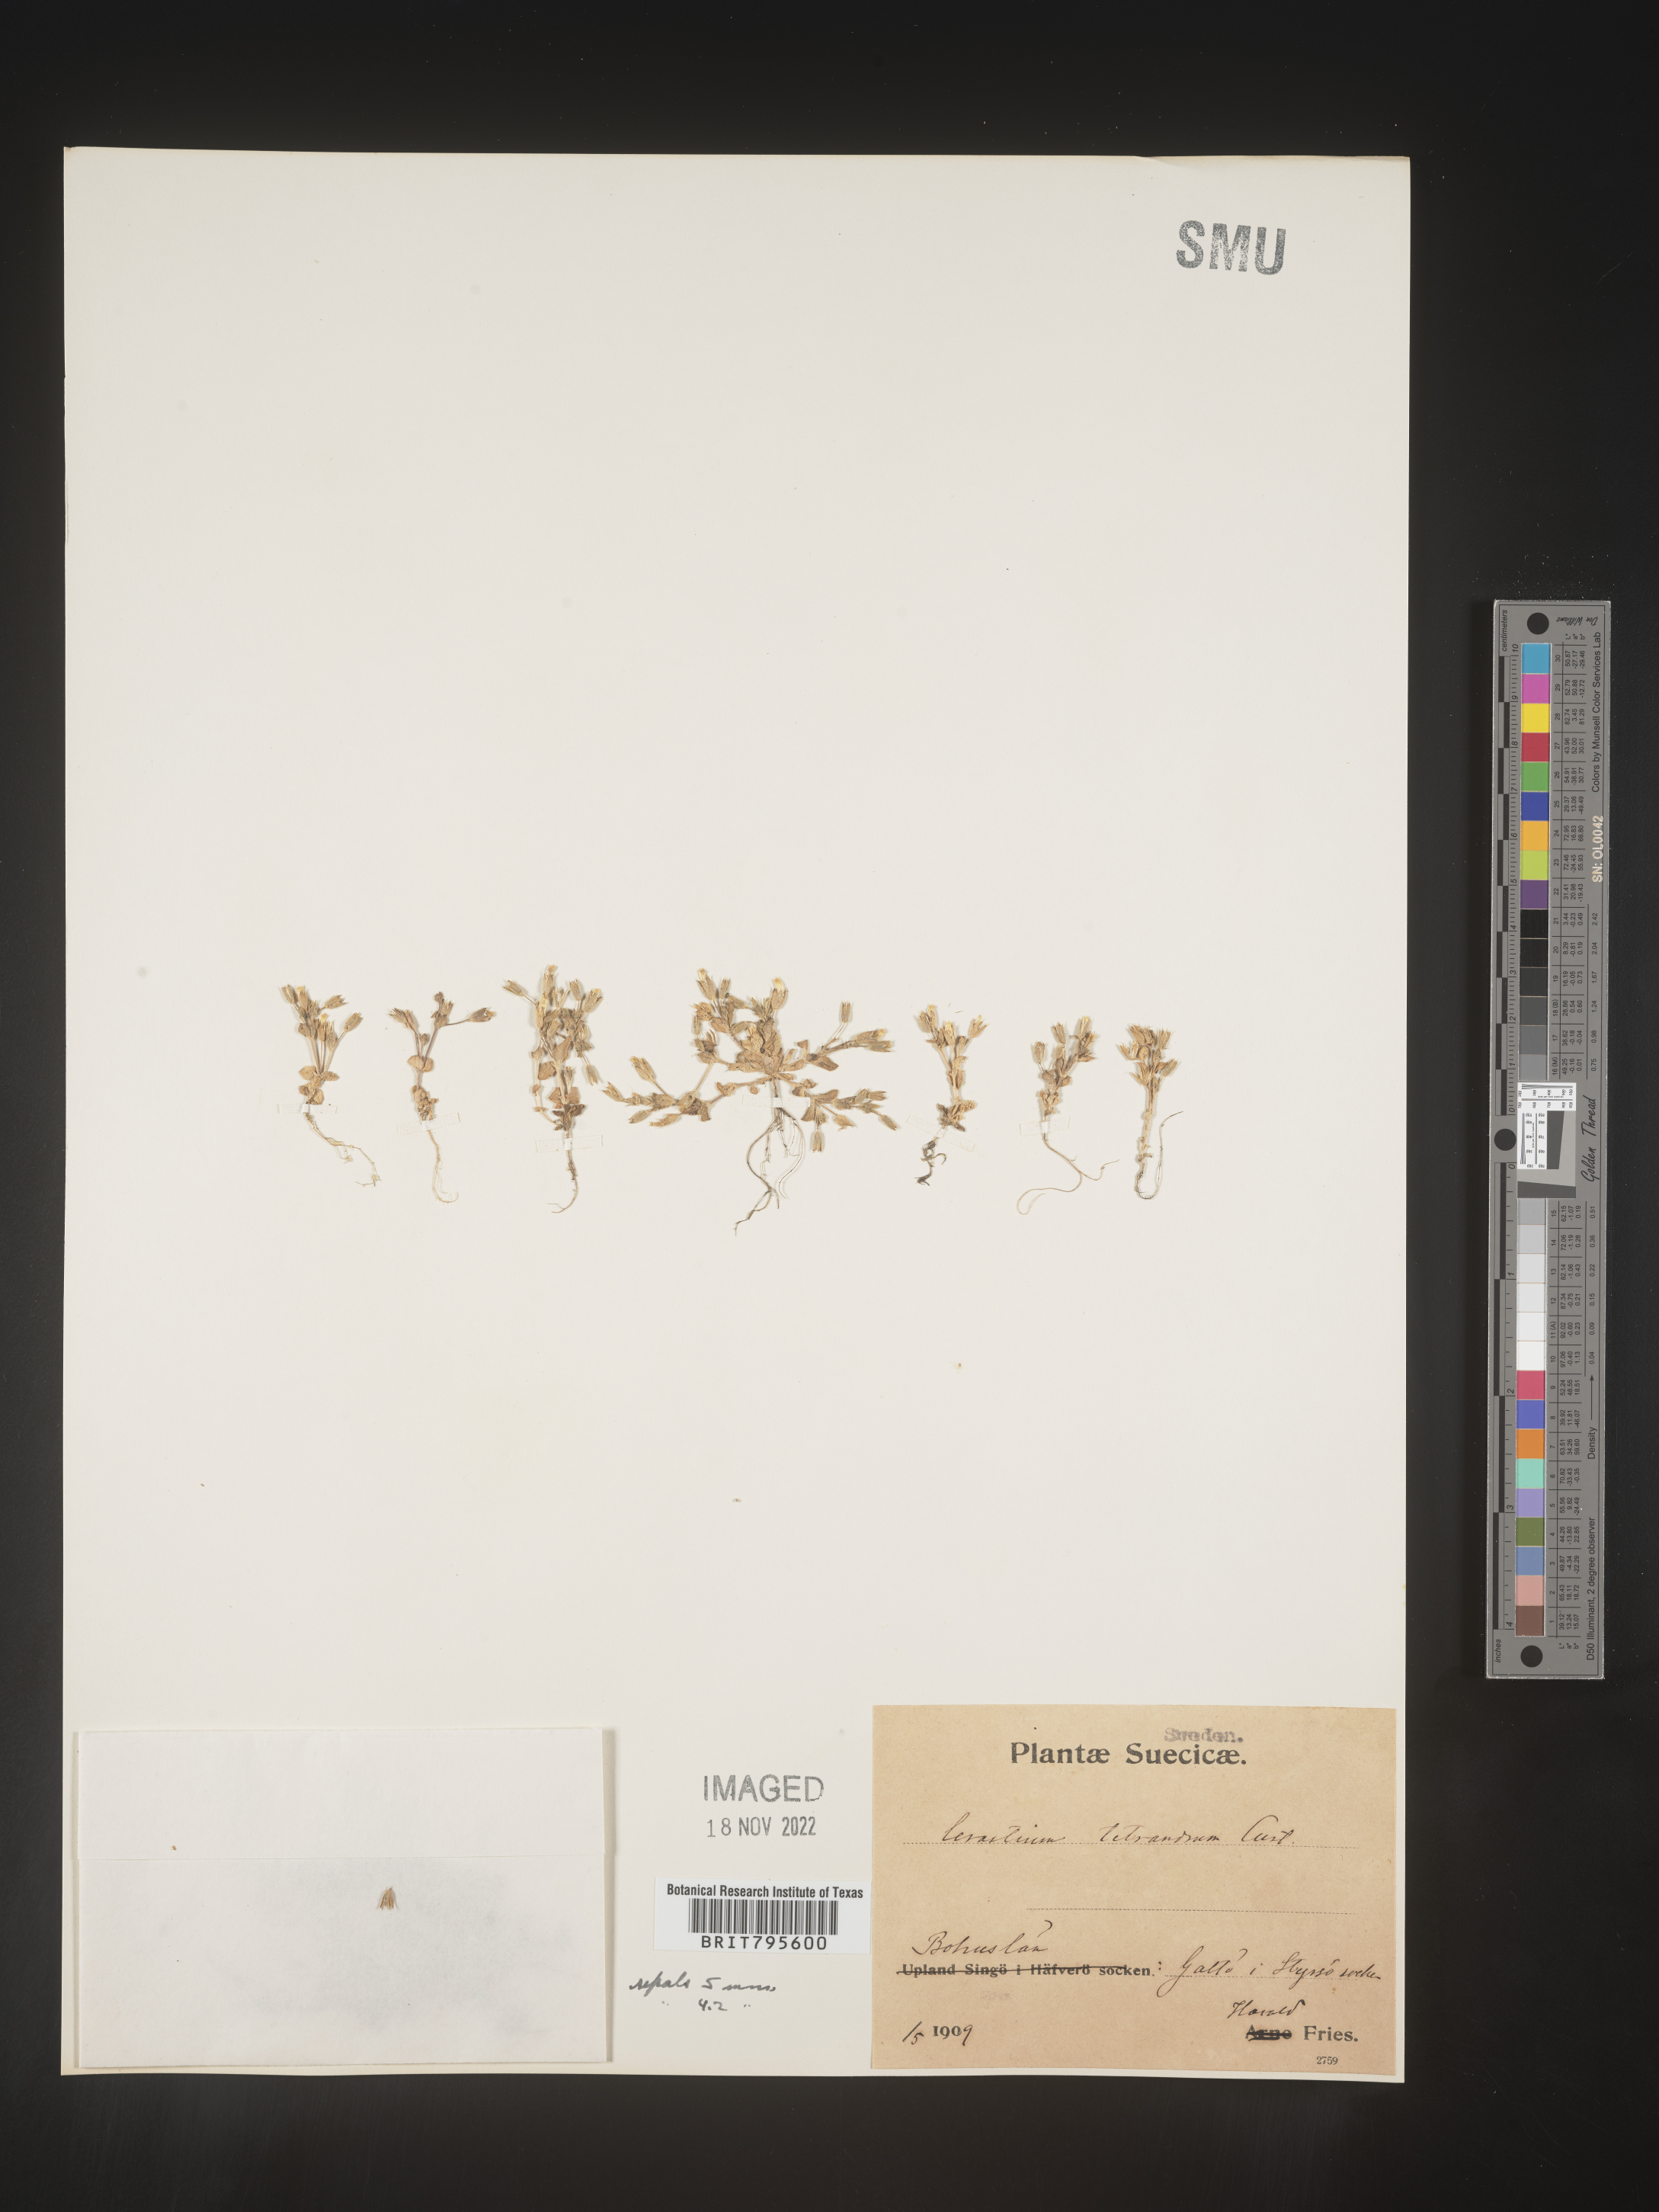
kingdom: Plantae
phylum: Tracheophyta
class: Magnoliopsida
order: Caryophyllales
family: Caryophyllaceae
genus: Cerastium
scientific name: Cerastium
